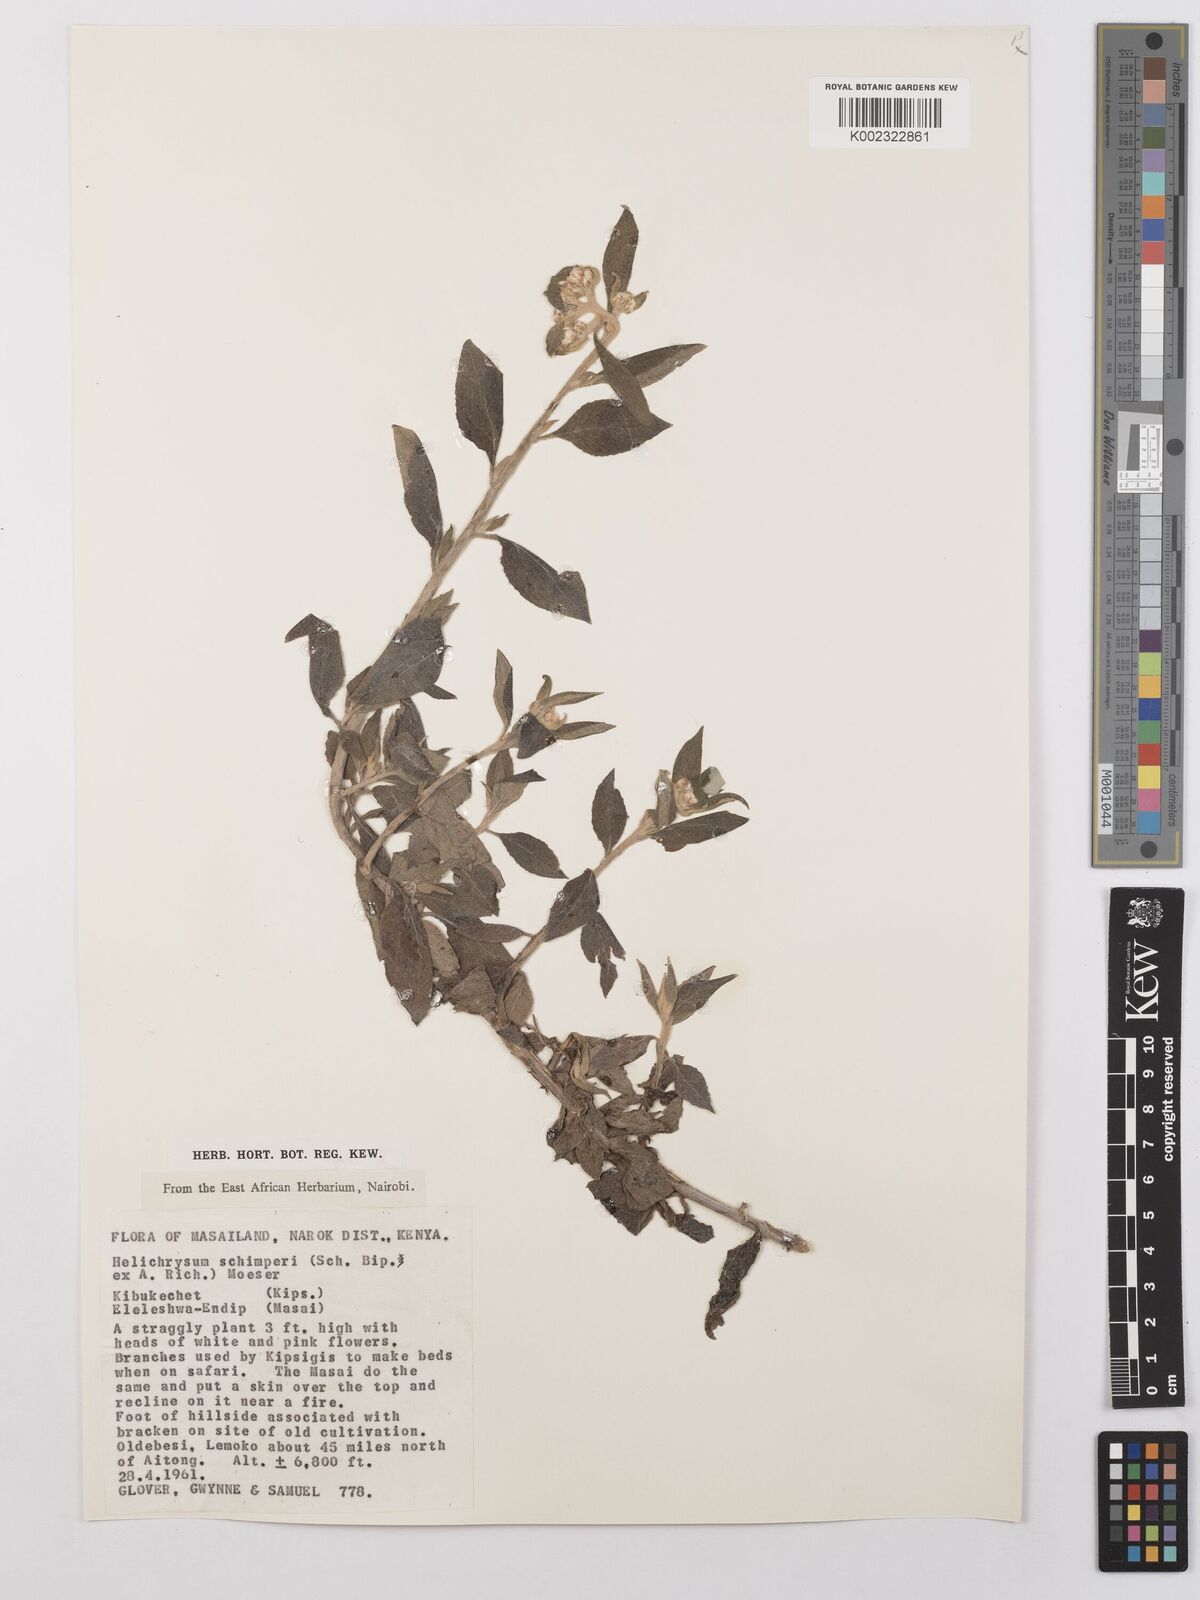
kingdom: Plantae
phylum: Tracheophyta
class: Magnoliopsida
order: Asterales
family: Asteraceae
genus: Helichrysum
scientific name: Helichrysum schimperi
